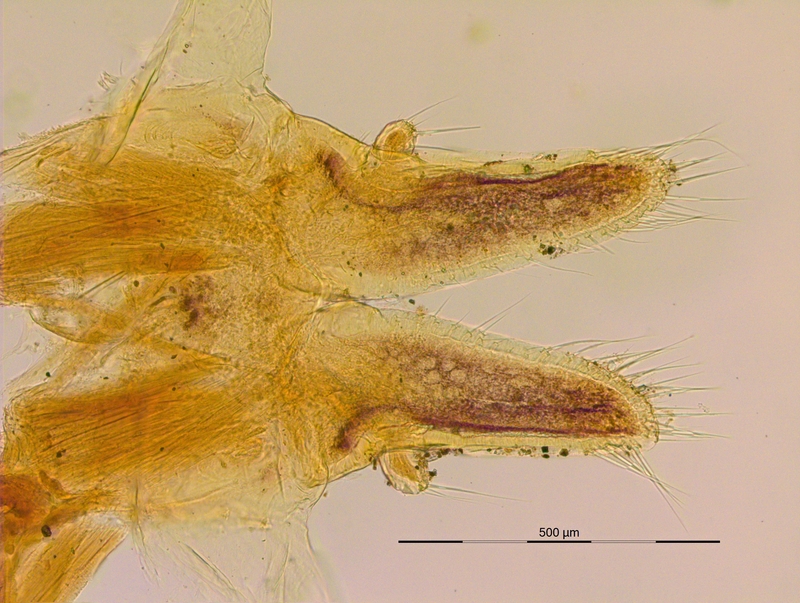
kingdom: Animalia
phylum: Arthropoda
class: Diplopoda
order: Julida
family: Mongoliulidae
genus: Nesoprotopus
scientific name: Nesoprotopus insularum
